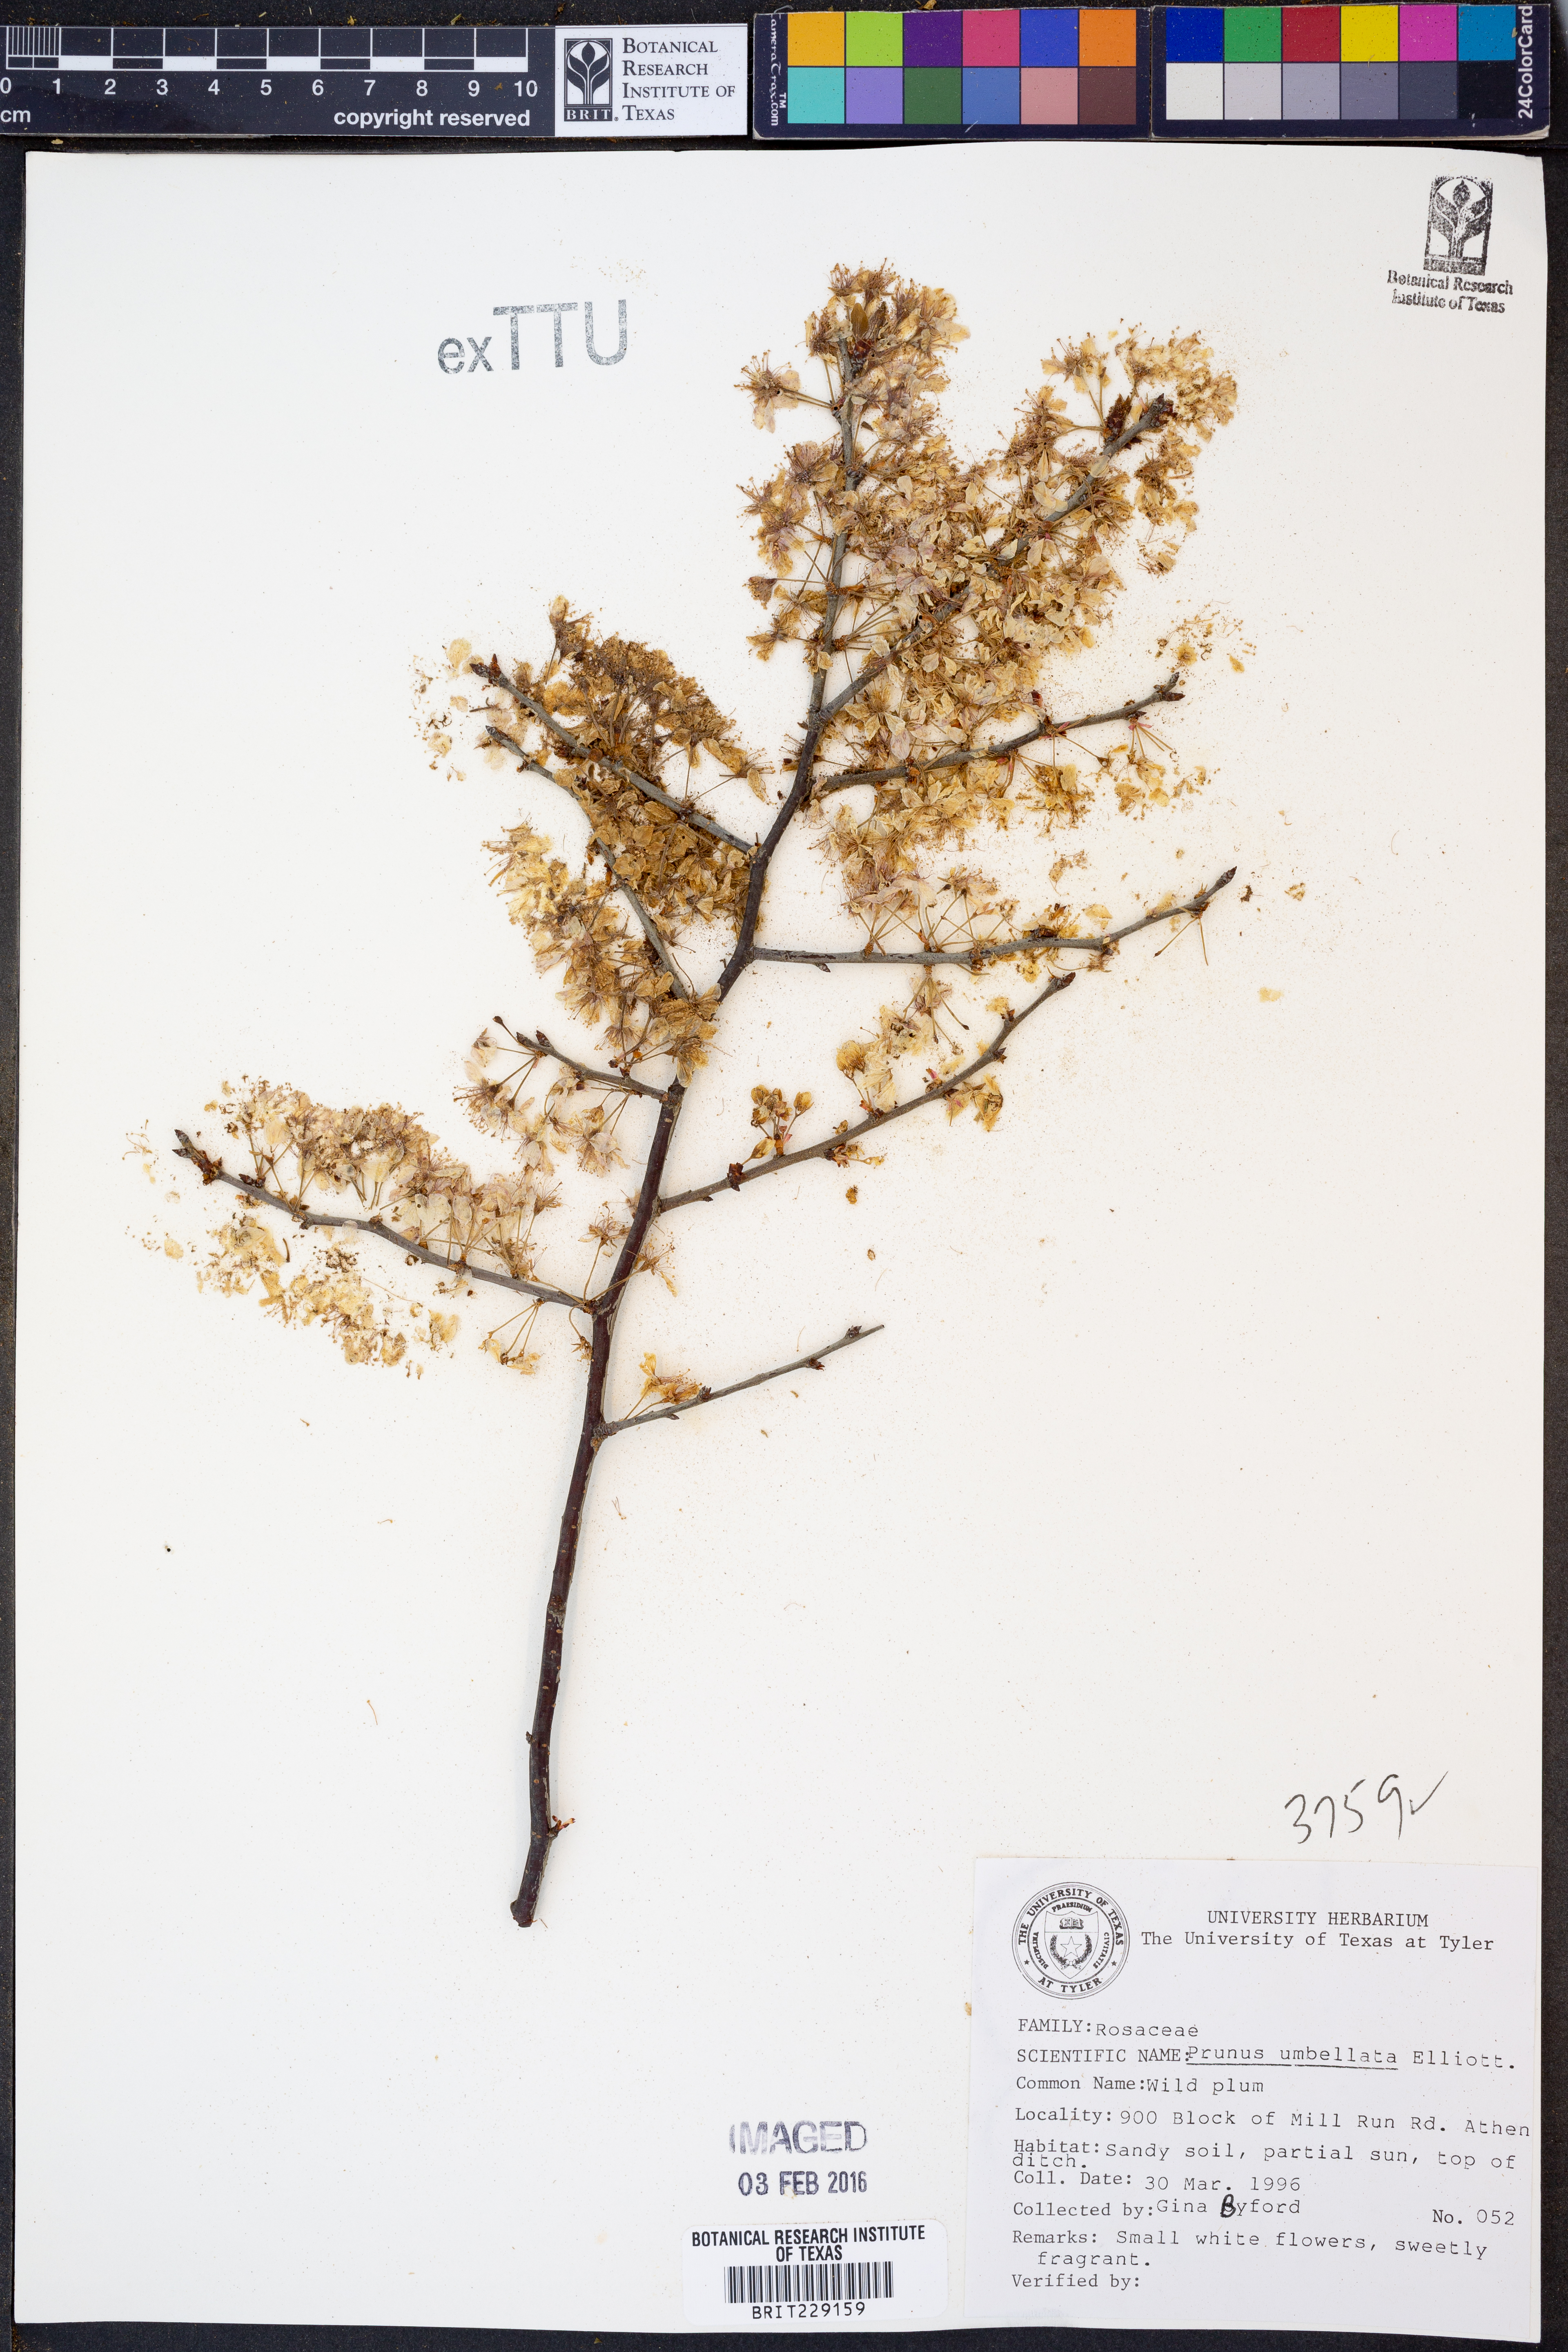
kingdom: Plantae
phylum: Tracheophyta
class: Magnoliopsida
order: Rosales
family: Rosaceae
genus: Prunus
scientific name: Prunus umbellata
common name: Allegheny plum
